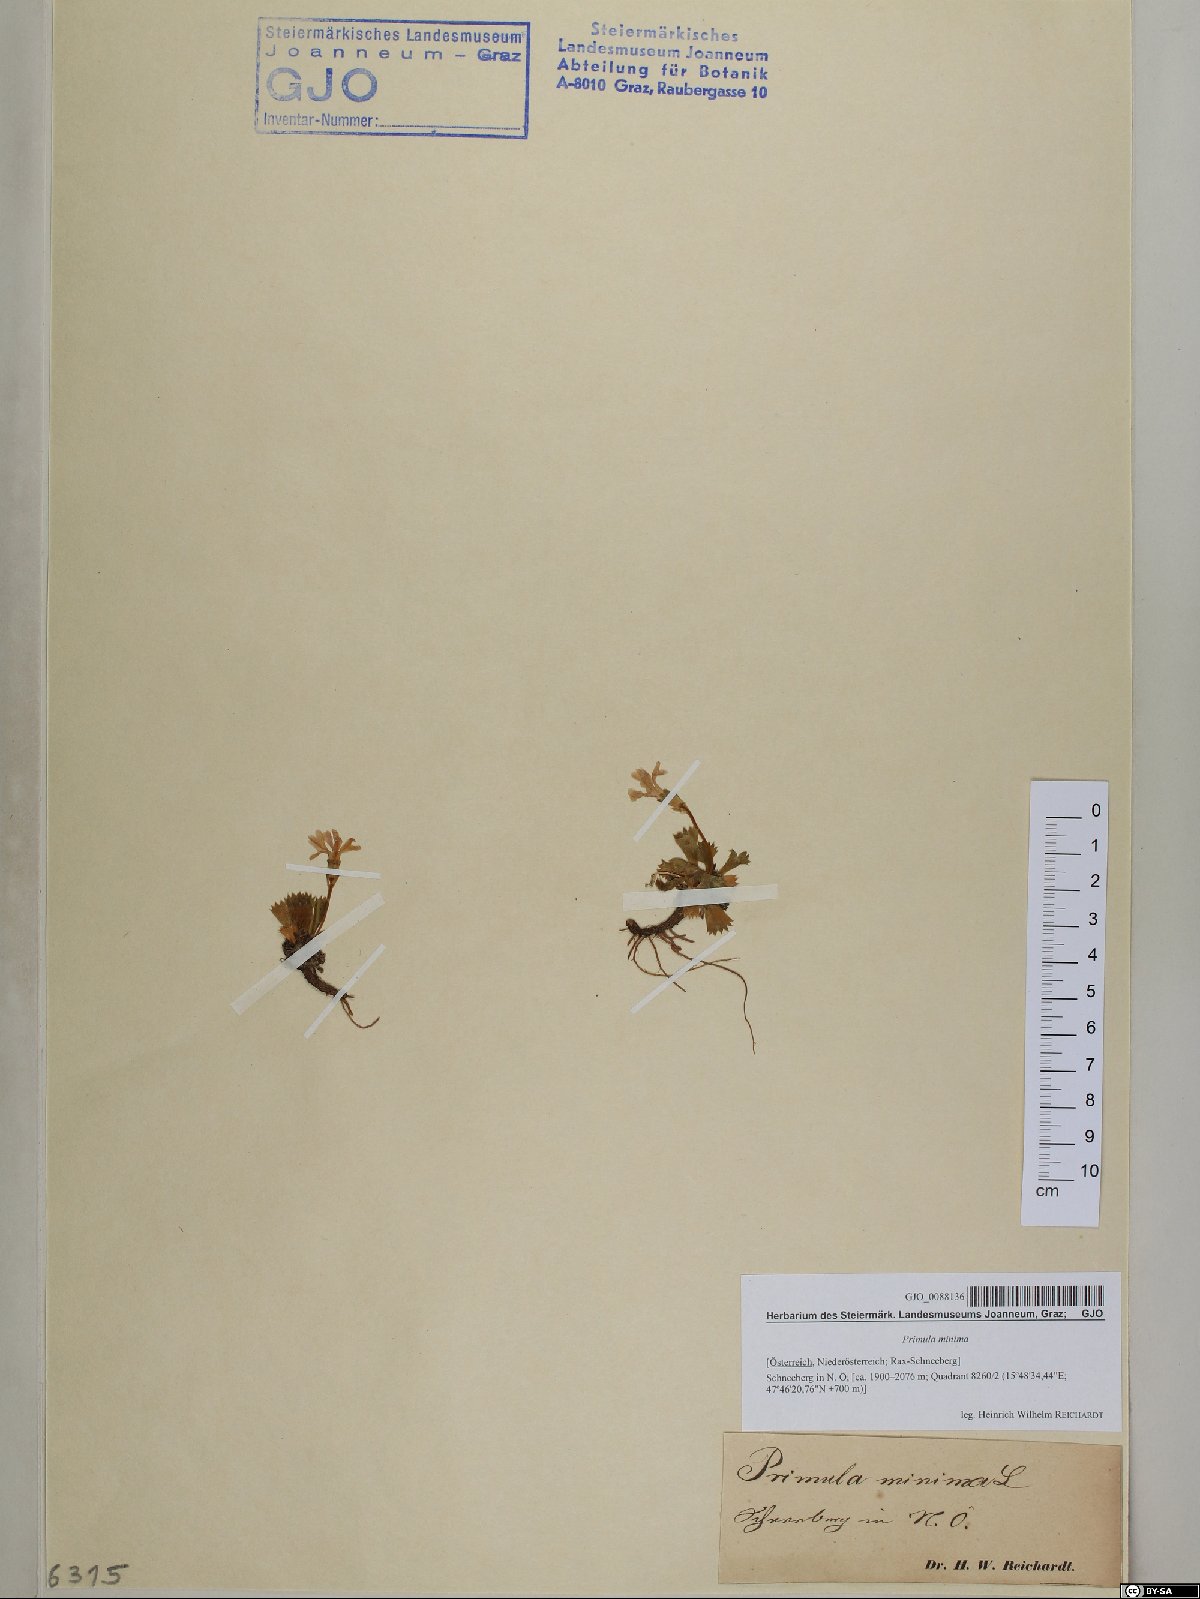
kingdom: Plantae
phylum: Tracheophyta
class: Magnoliopsida
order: Ericales
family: Primulaceae
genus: Primula
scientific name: Primula minima
